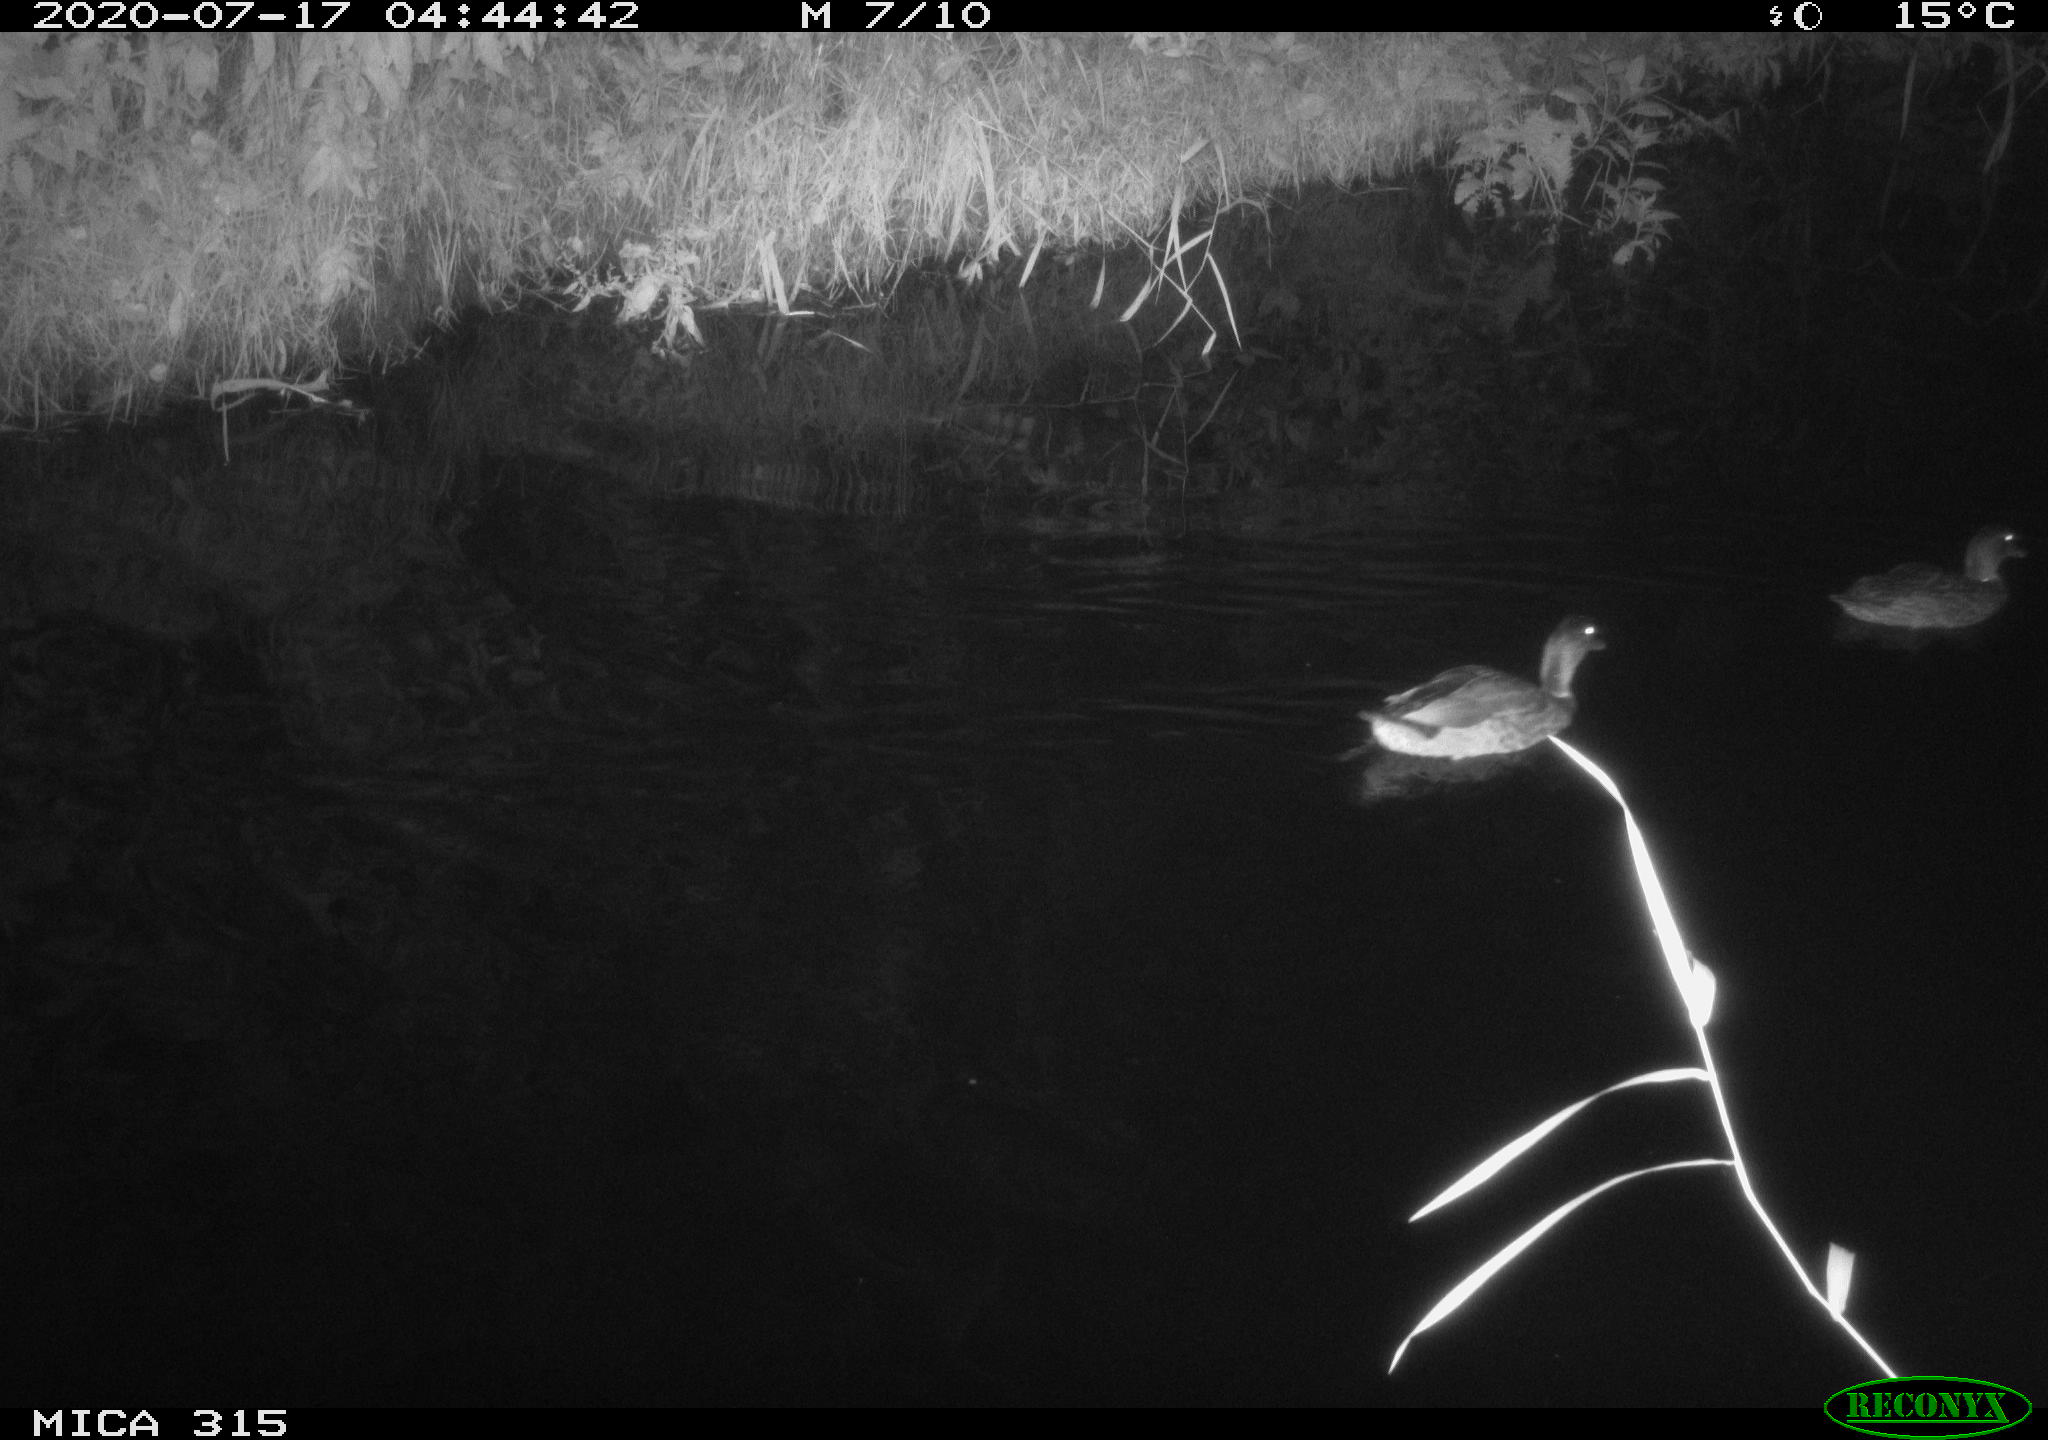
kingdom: Animalia
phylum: Chordata
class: Aves
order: Anseriformes
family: Anatidae
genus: Anas
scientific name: Anas platyrhynchos
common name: Mallard
